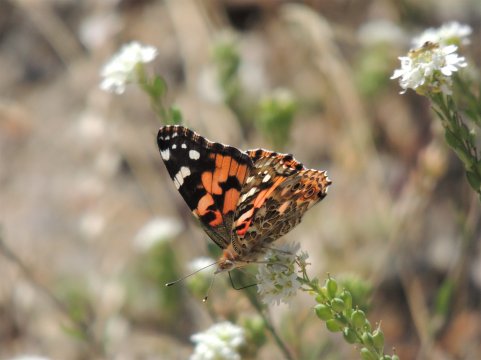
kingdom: Animalia
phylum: Arthropoda
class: Insecta
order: Lepidoptera
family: Nymphalidae
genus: Vanessa
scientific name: Vanessa cardui
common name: Painted Lady
